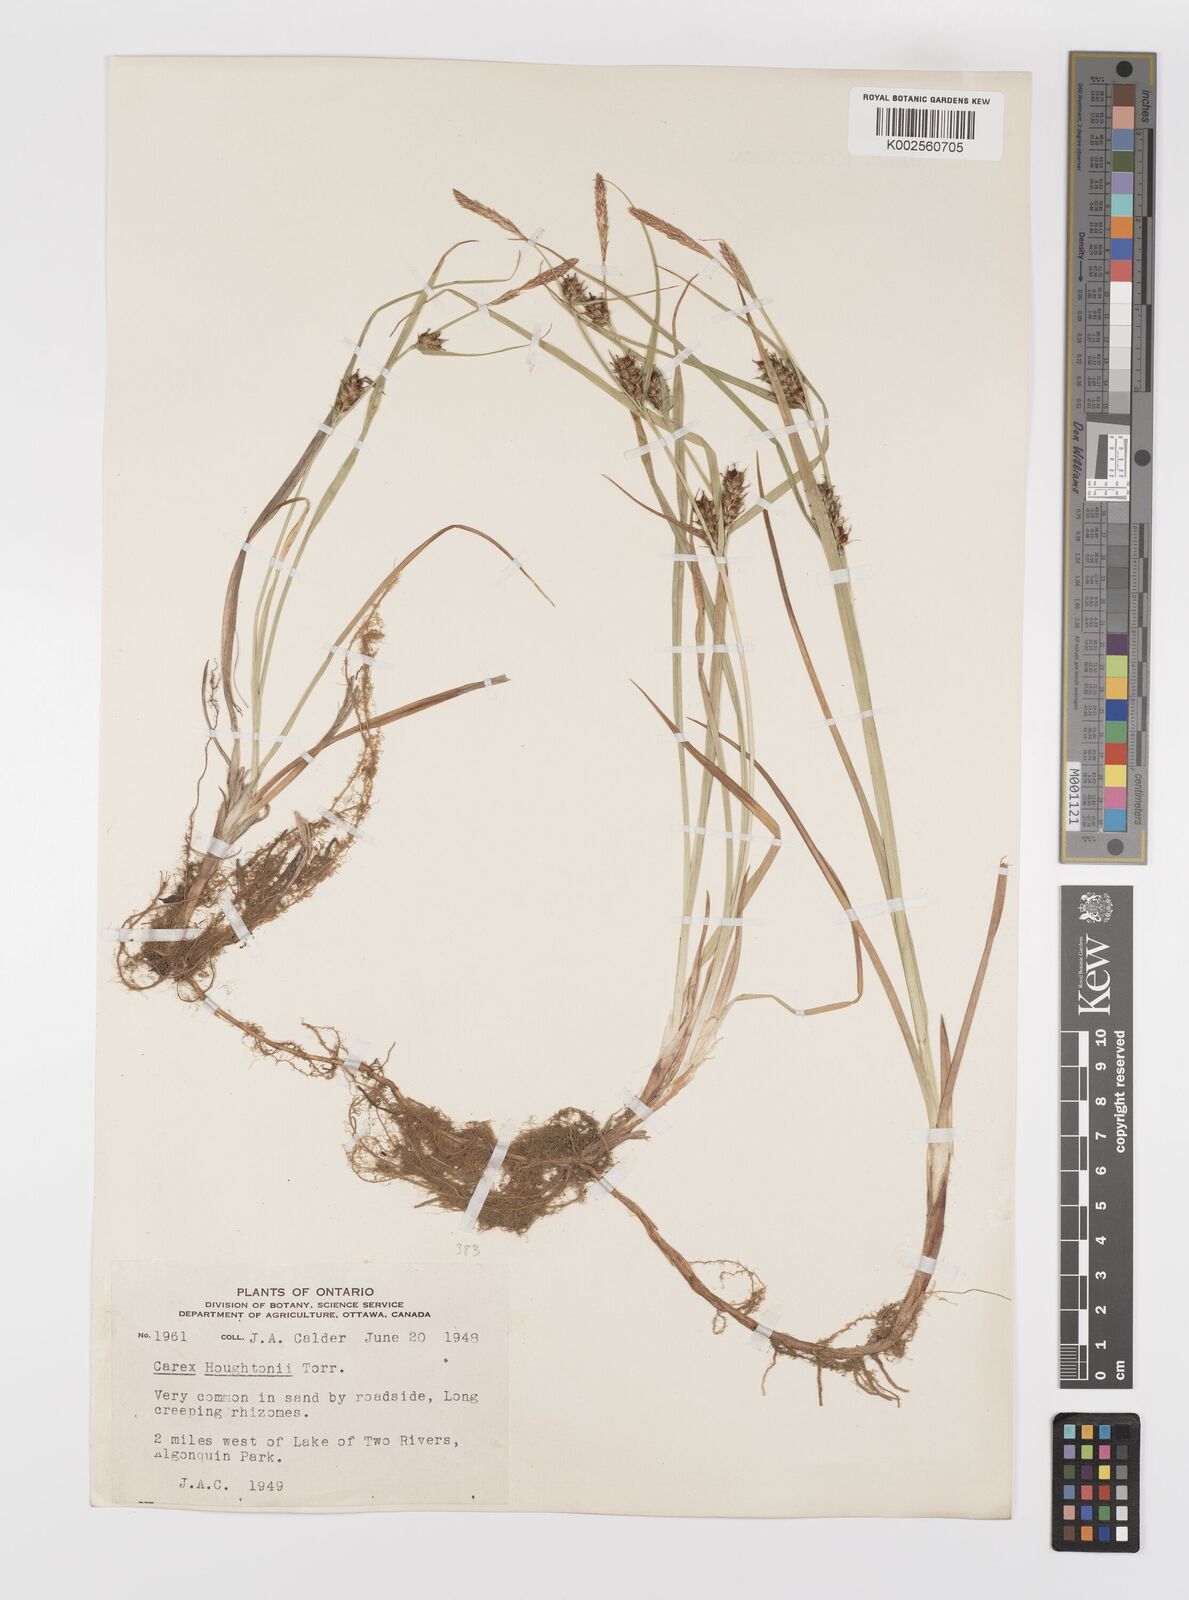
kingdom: Plantae
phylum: Tracheophyta
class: Liliopsida
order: Poales
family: Cyperaceae
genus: Carex
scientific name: Carex houghtoniana
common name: Houghton's sedge
